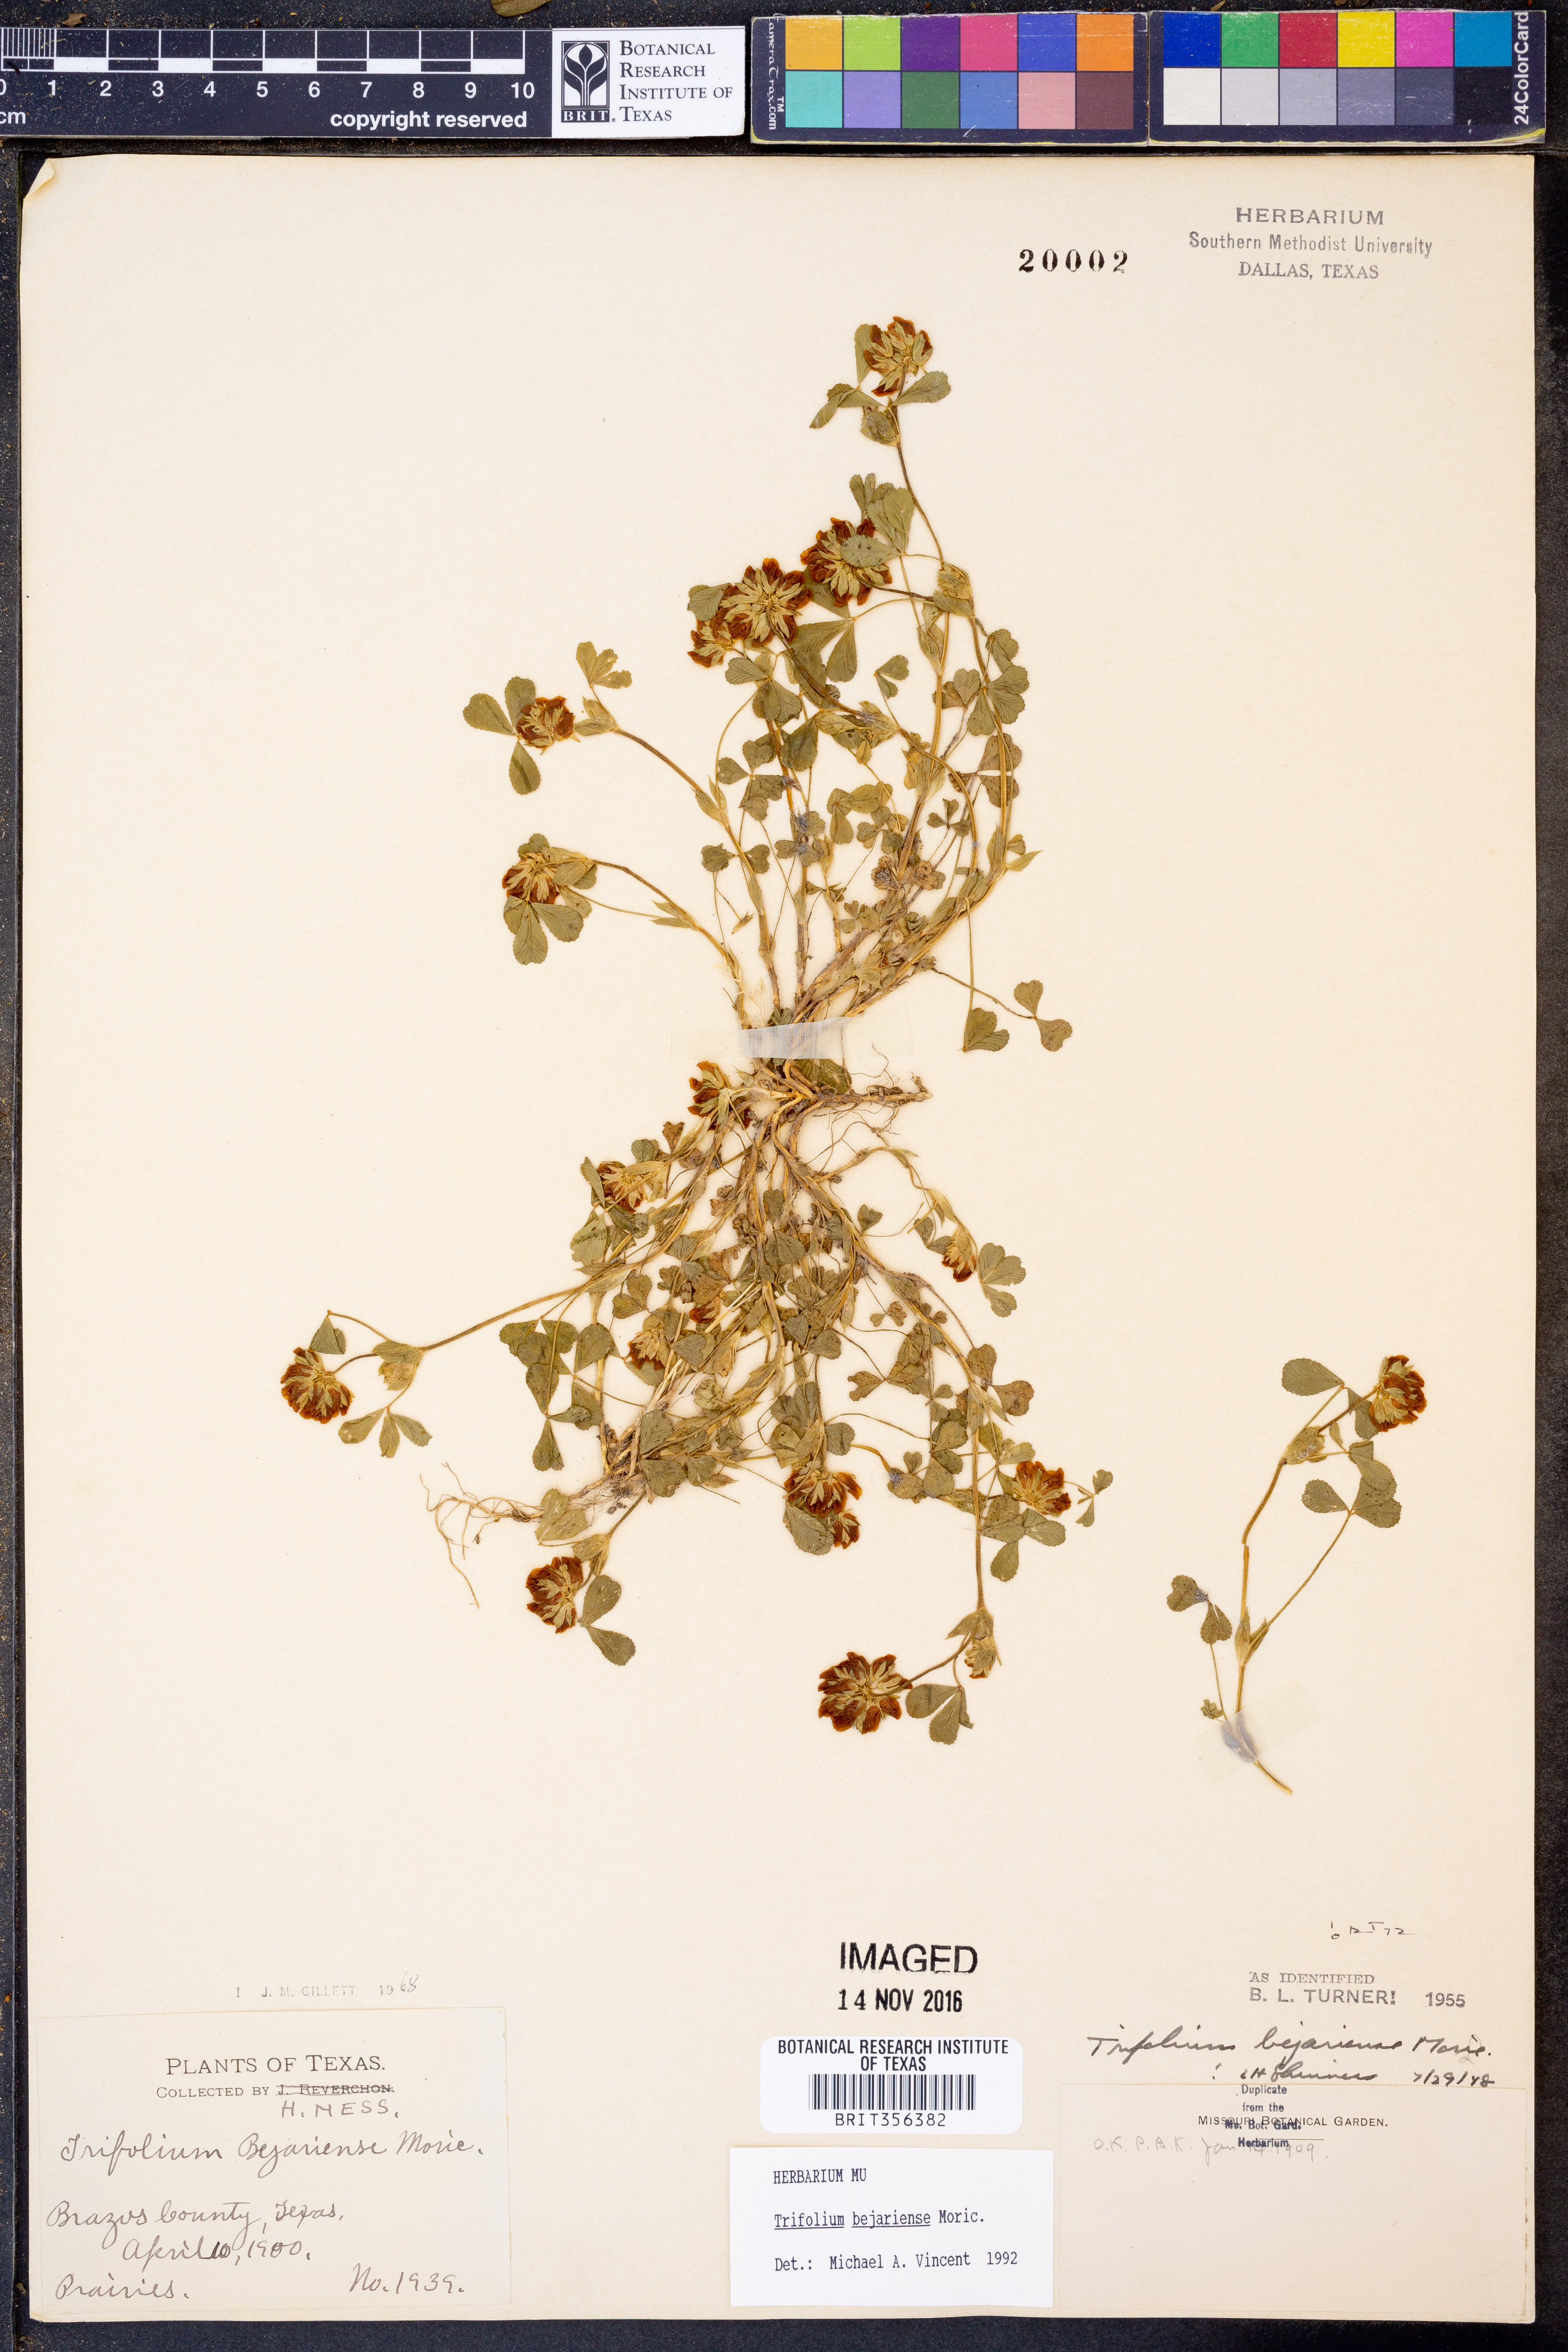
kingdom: Plantae
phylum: Tracheophyta
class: Magnoliopsida
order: Fabales
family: Fabaceae
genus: Trifolium
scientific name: Trifolium bejariense
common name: Bejar clover
